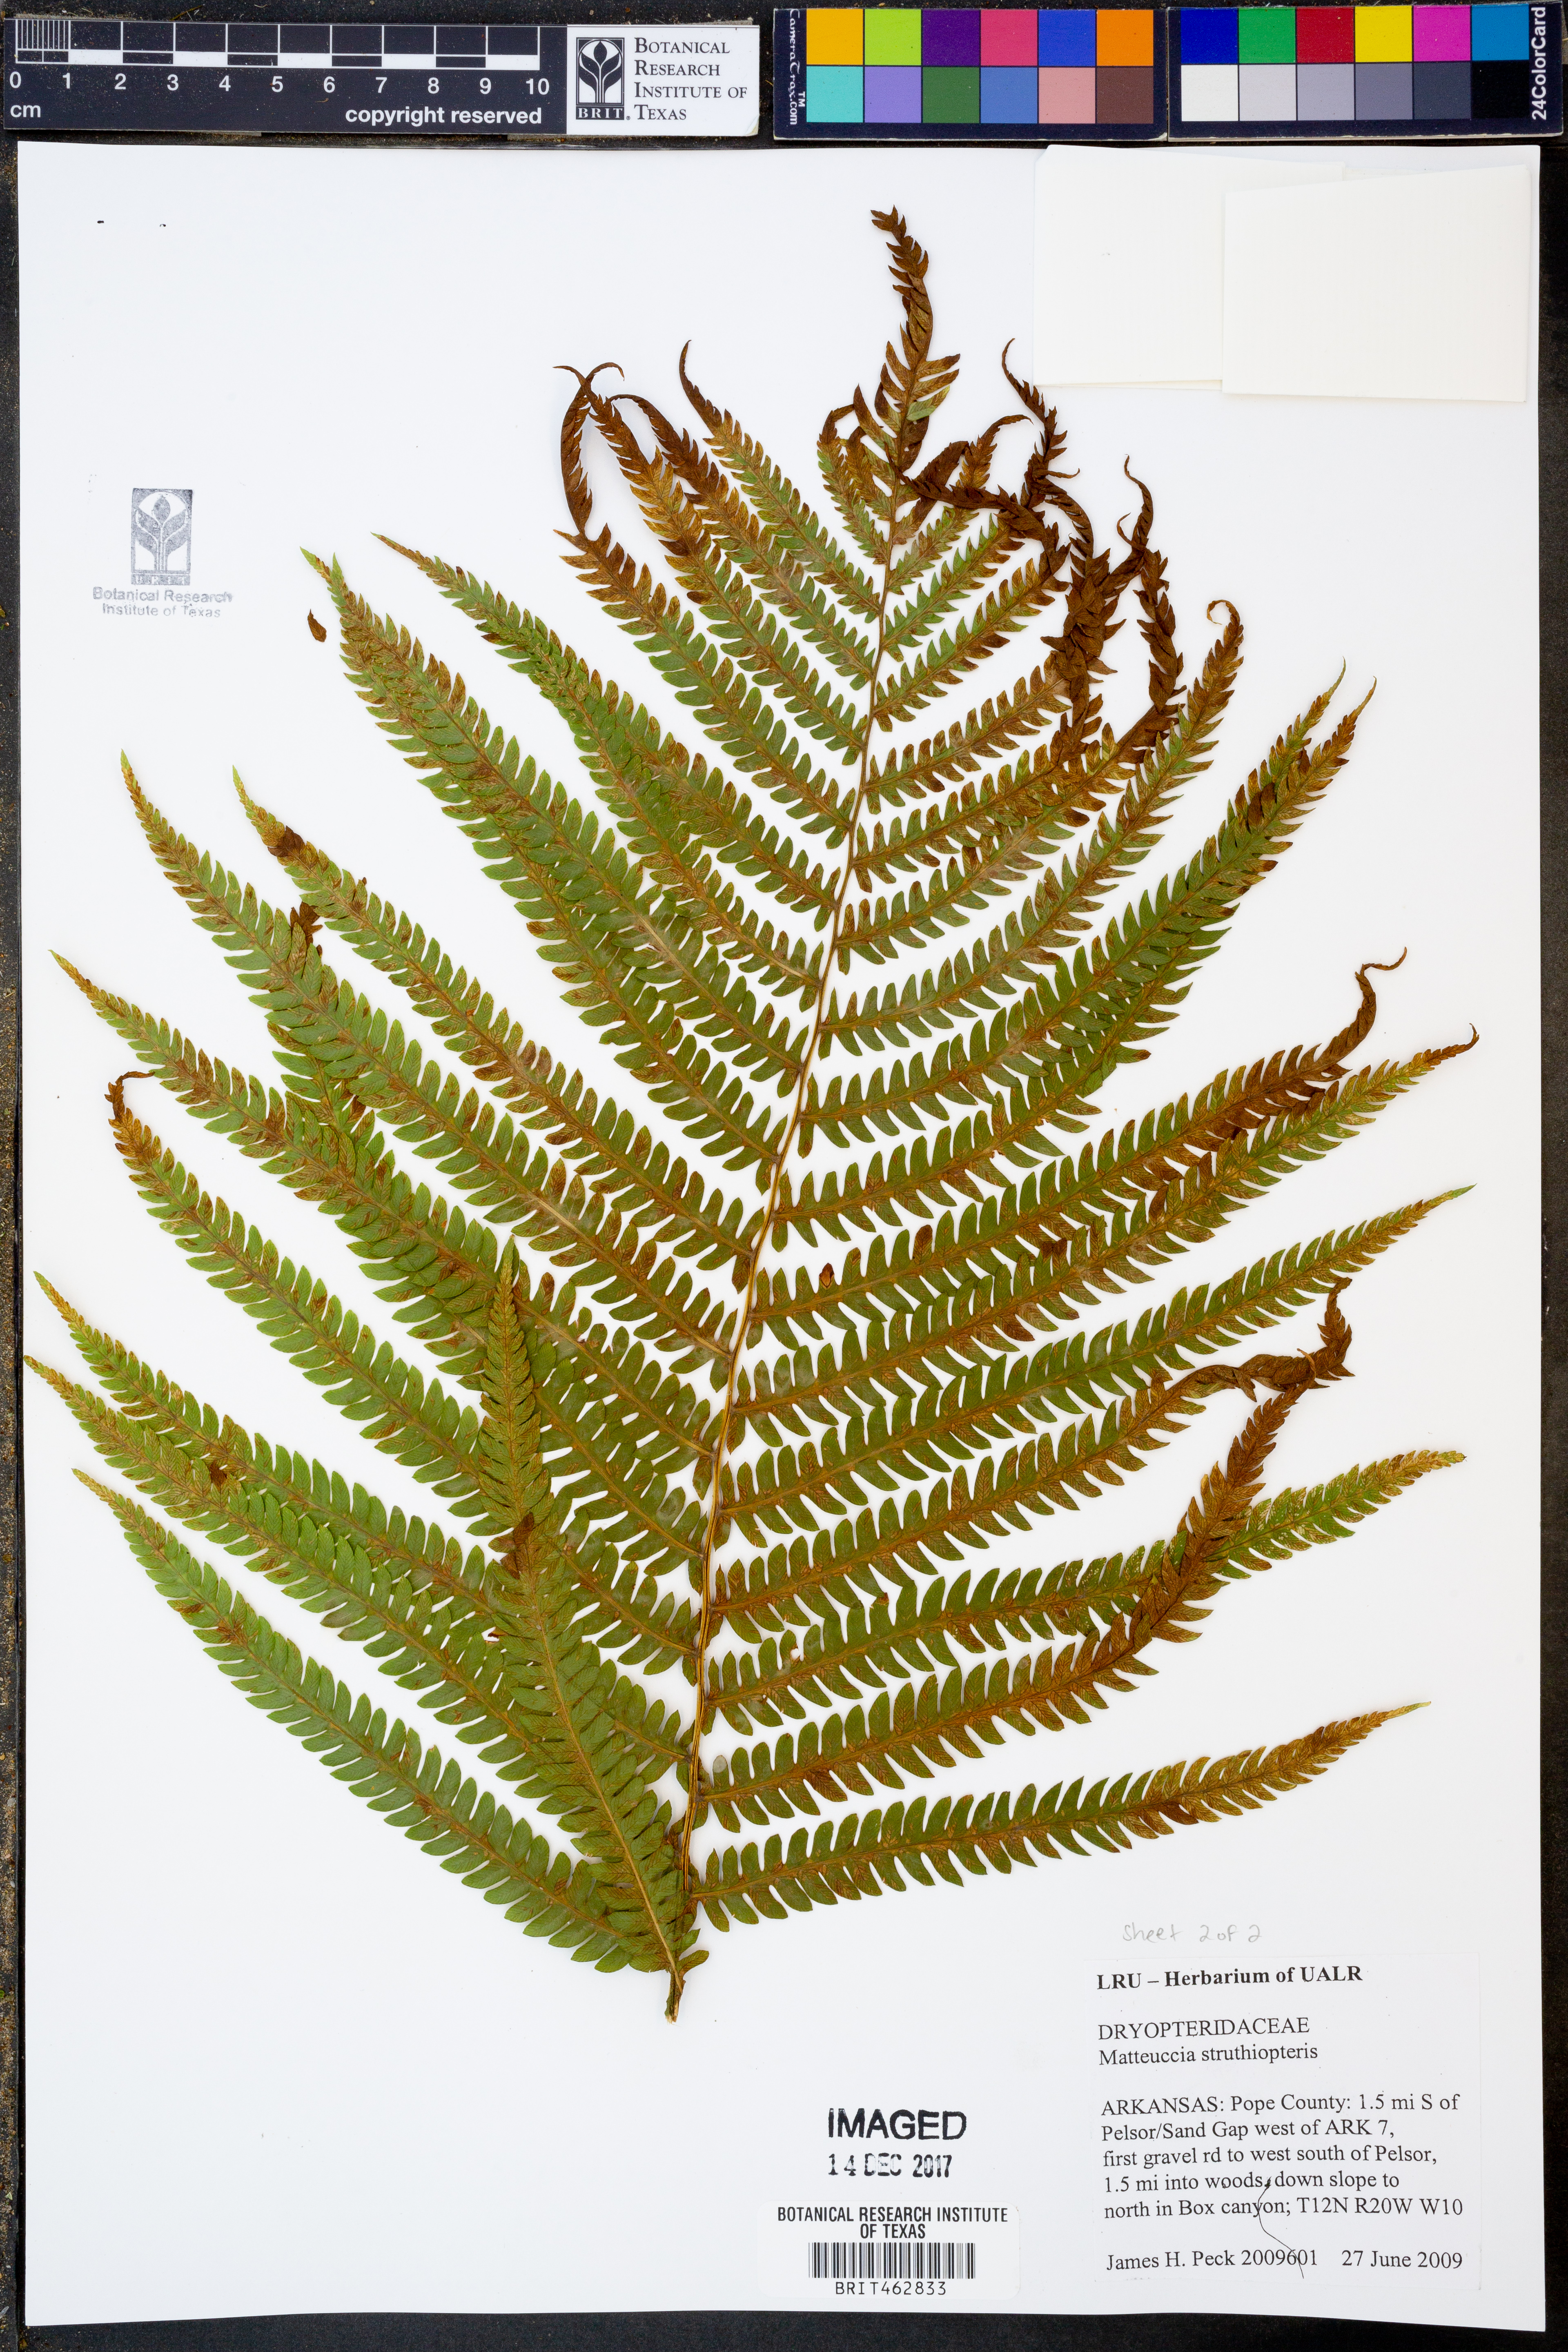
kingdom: Plantae
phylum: Tracheophyta
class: Polypodiopsida
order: Polypodiales
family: Onocleaceae
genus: Matteuccia
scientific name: Matteuccia struthiopteris
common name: Ostrich fern
